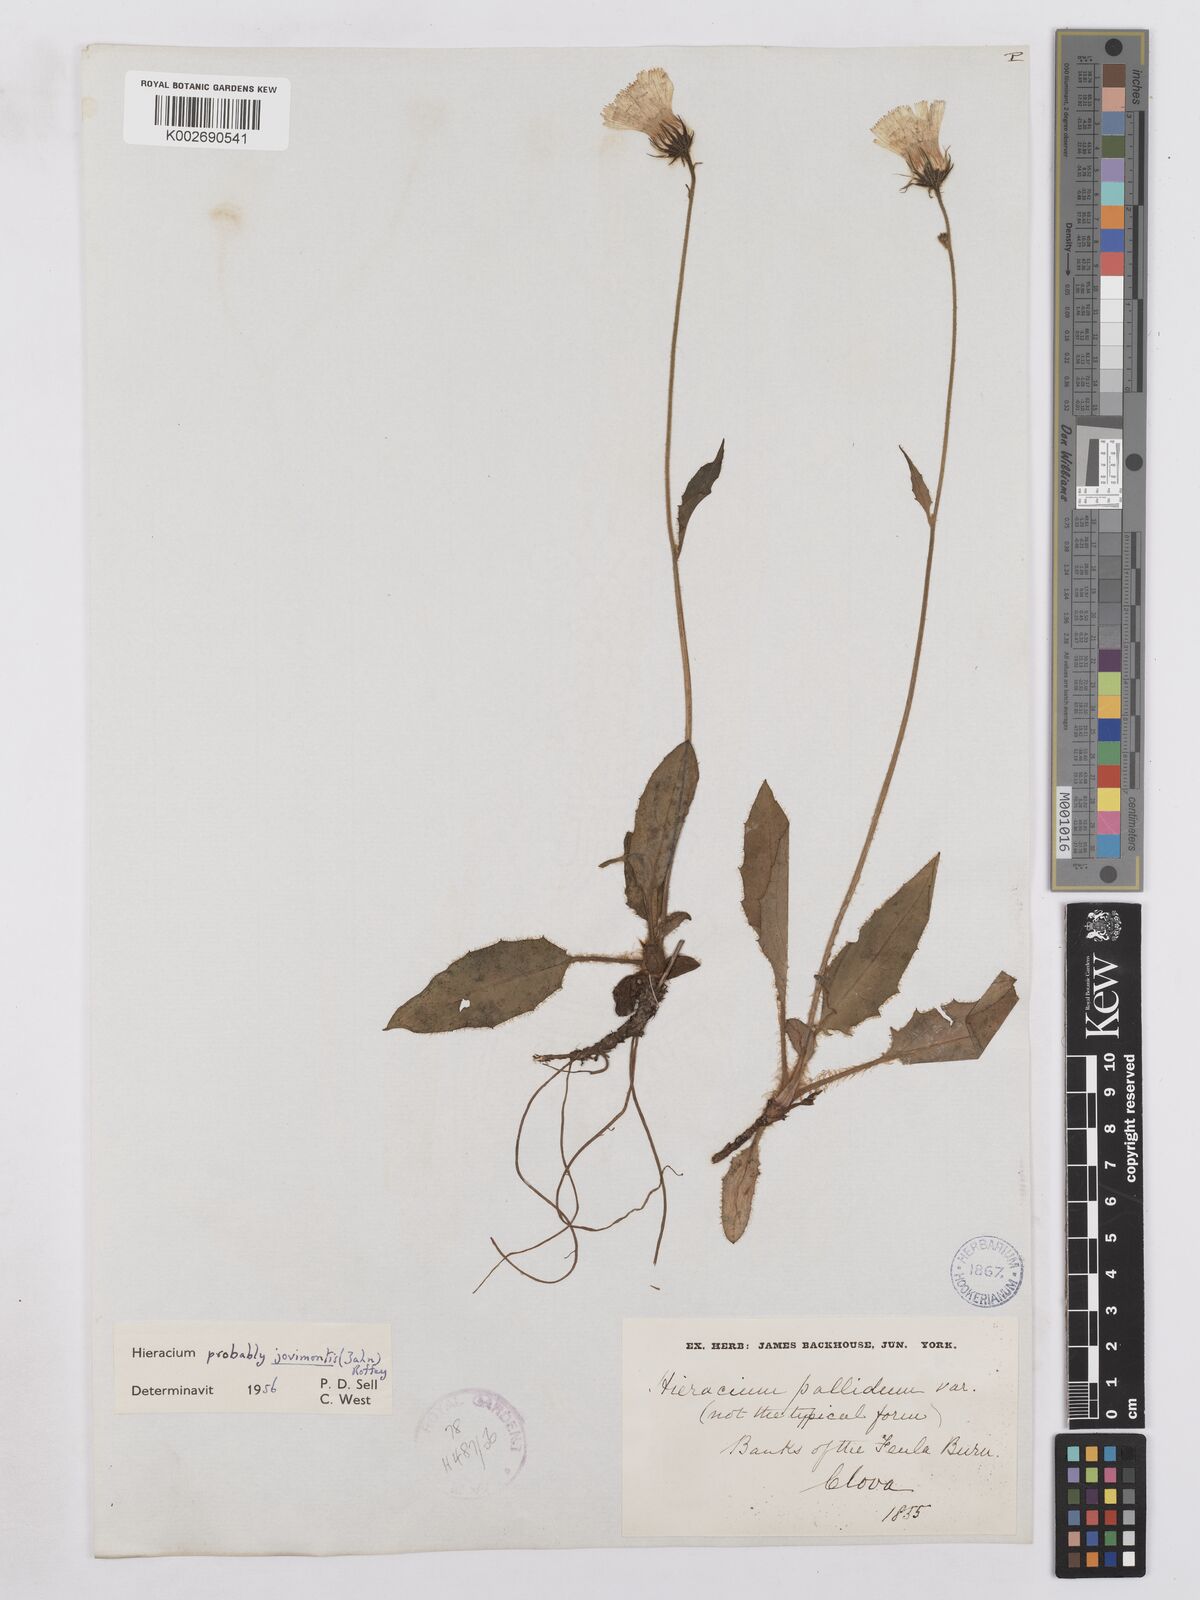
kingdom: Plantae
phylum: Tracheophyta
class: Magnoliopsida
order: Asterales
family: Asteraceae
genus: Hieracium
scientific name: Hieracium schmidtii
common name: Schmidt's hawkweed
